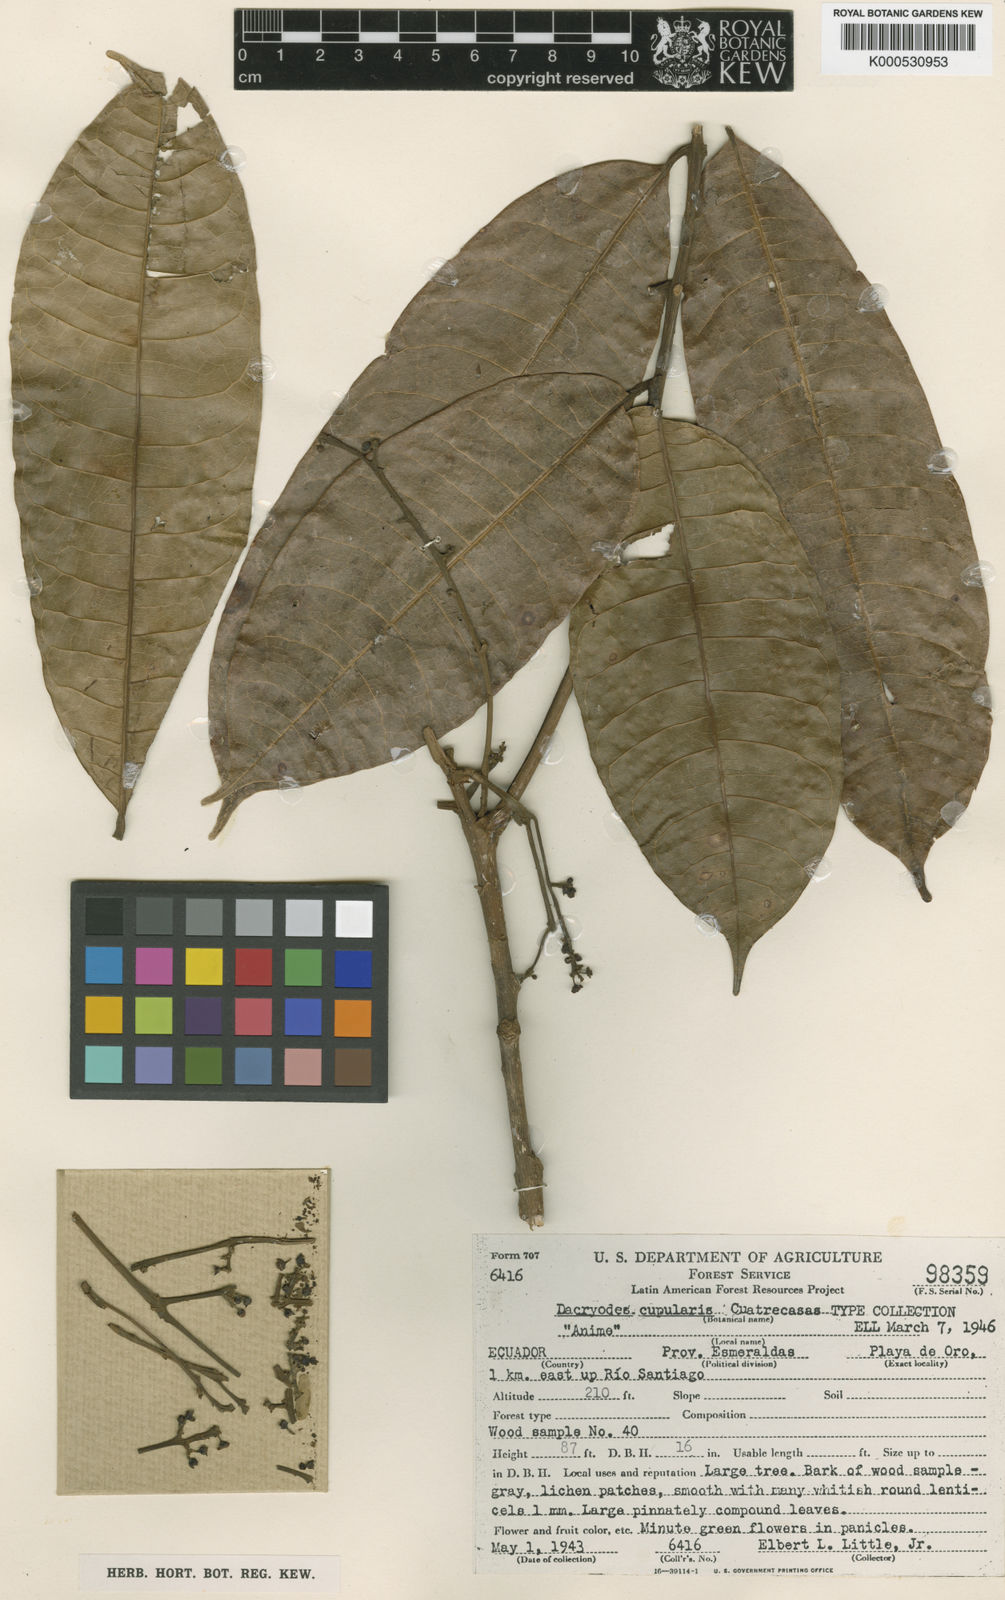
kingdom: Plantae
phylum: Tracheophyta
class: Magnoliopsida
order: Sapindales
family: Burseraceae
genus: Dacryodes
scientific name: Dacryodes cupularis
